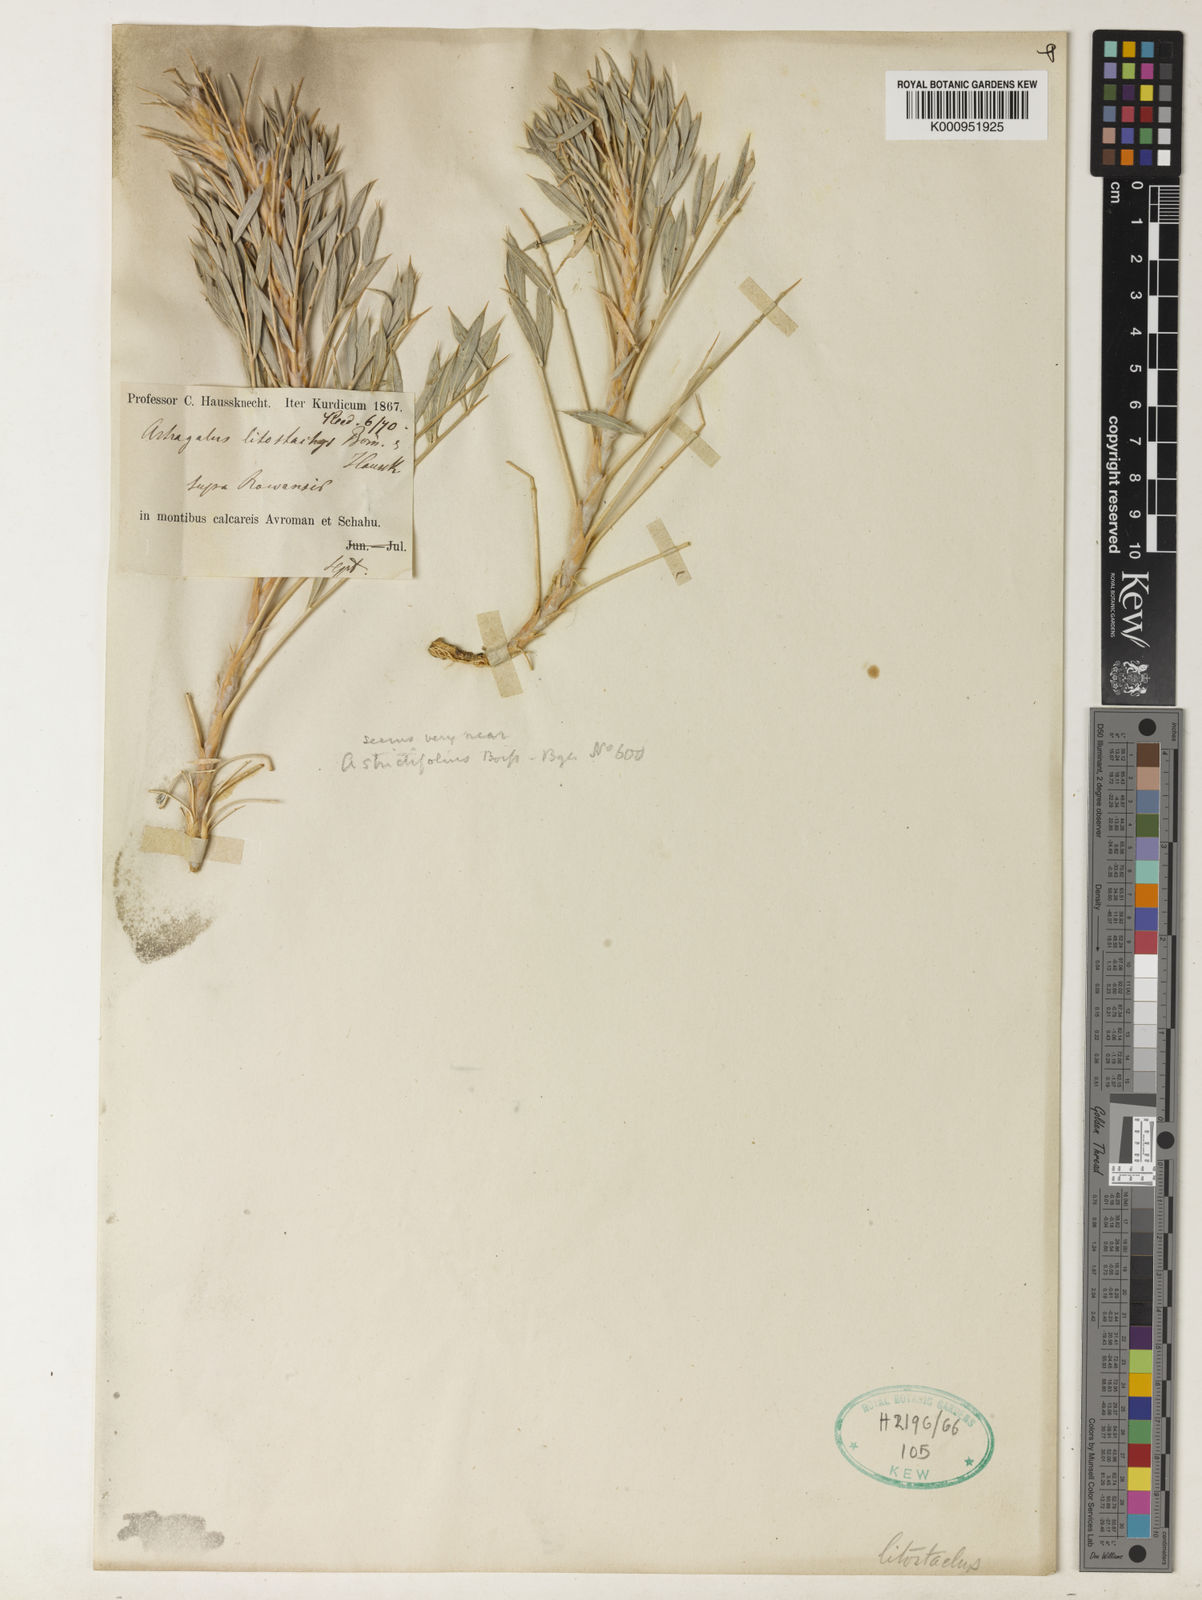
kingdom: Plantae
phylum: Tracheophyta
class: Magnoliopsida
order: Fabales
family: Fabaceae
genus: Astragalus
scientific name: Astragalus
